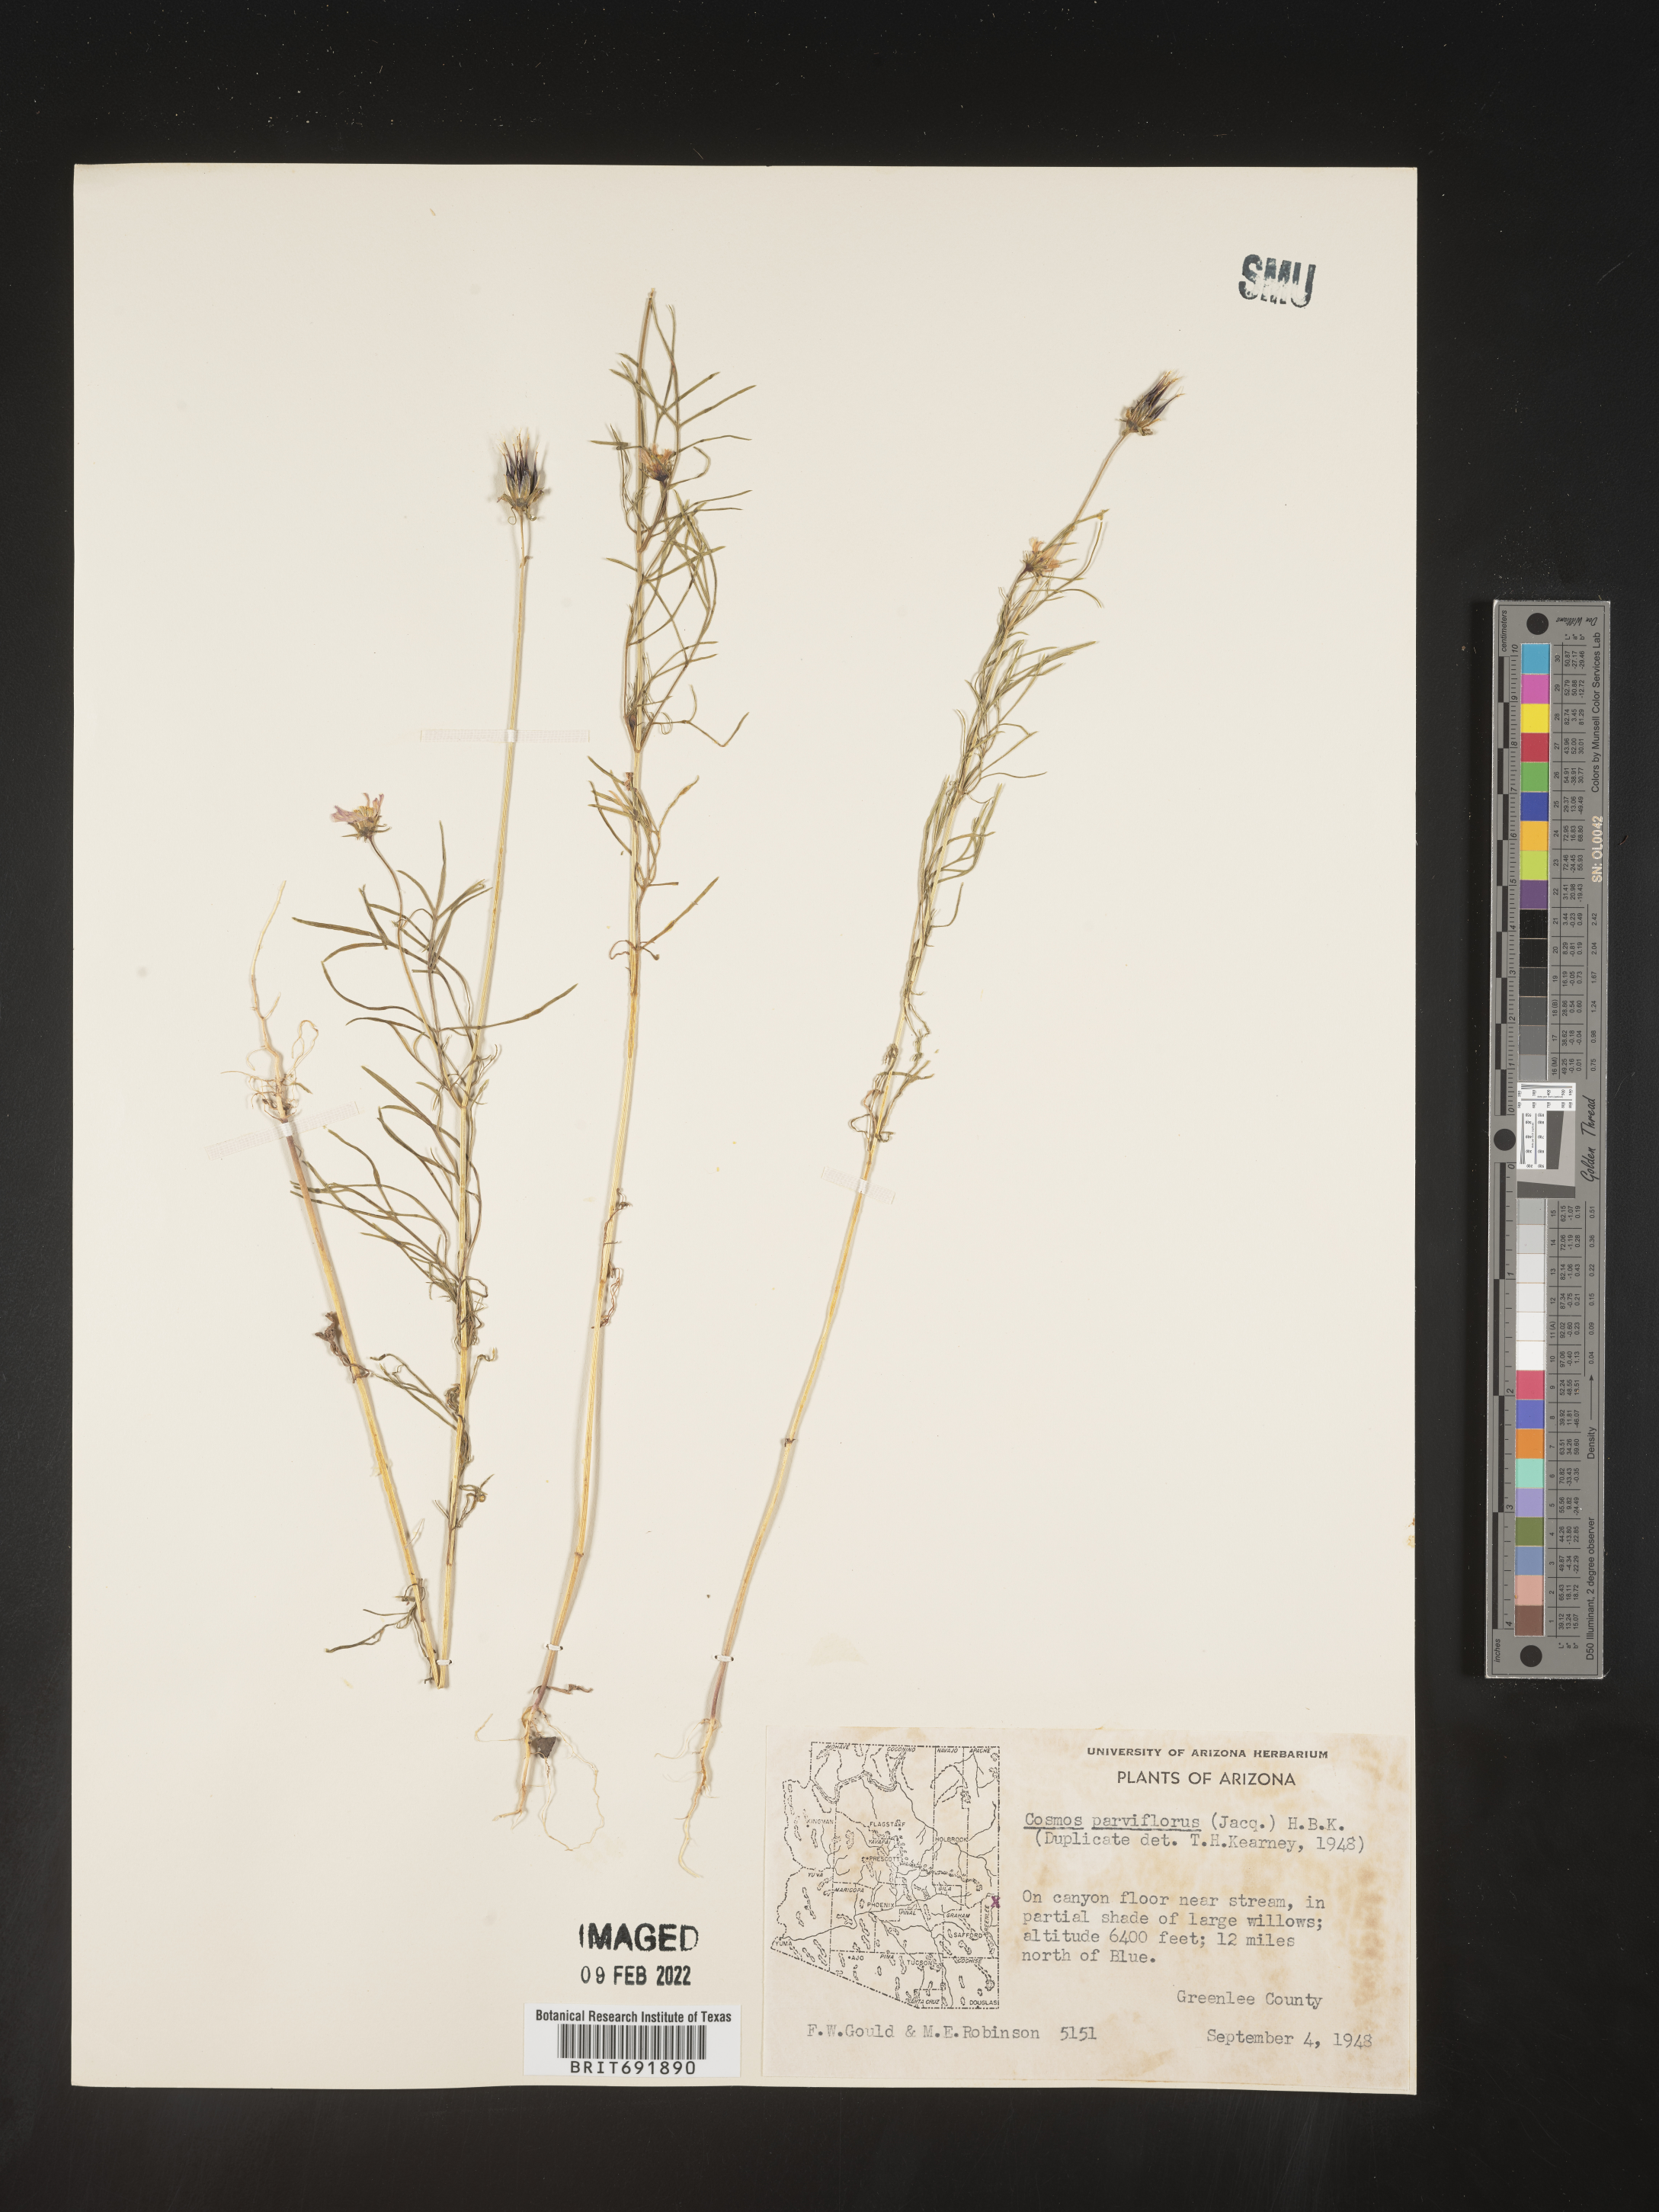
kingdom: Plantae
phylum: Tracheophyta
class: Magnoliopsida
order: Asterales
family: Asteraceae
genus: Cosmos
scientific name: Cosmos
